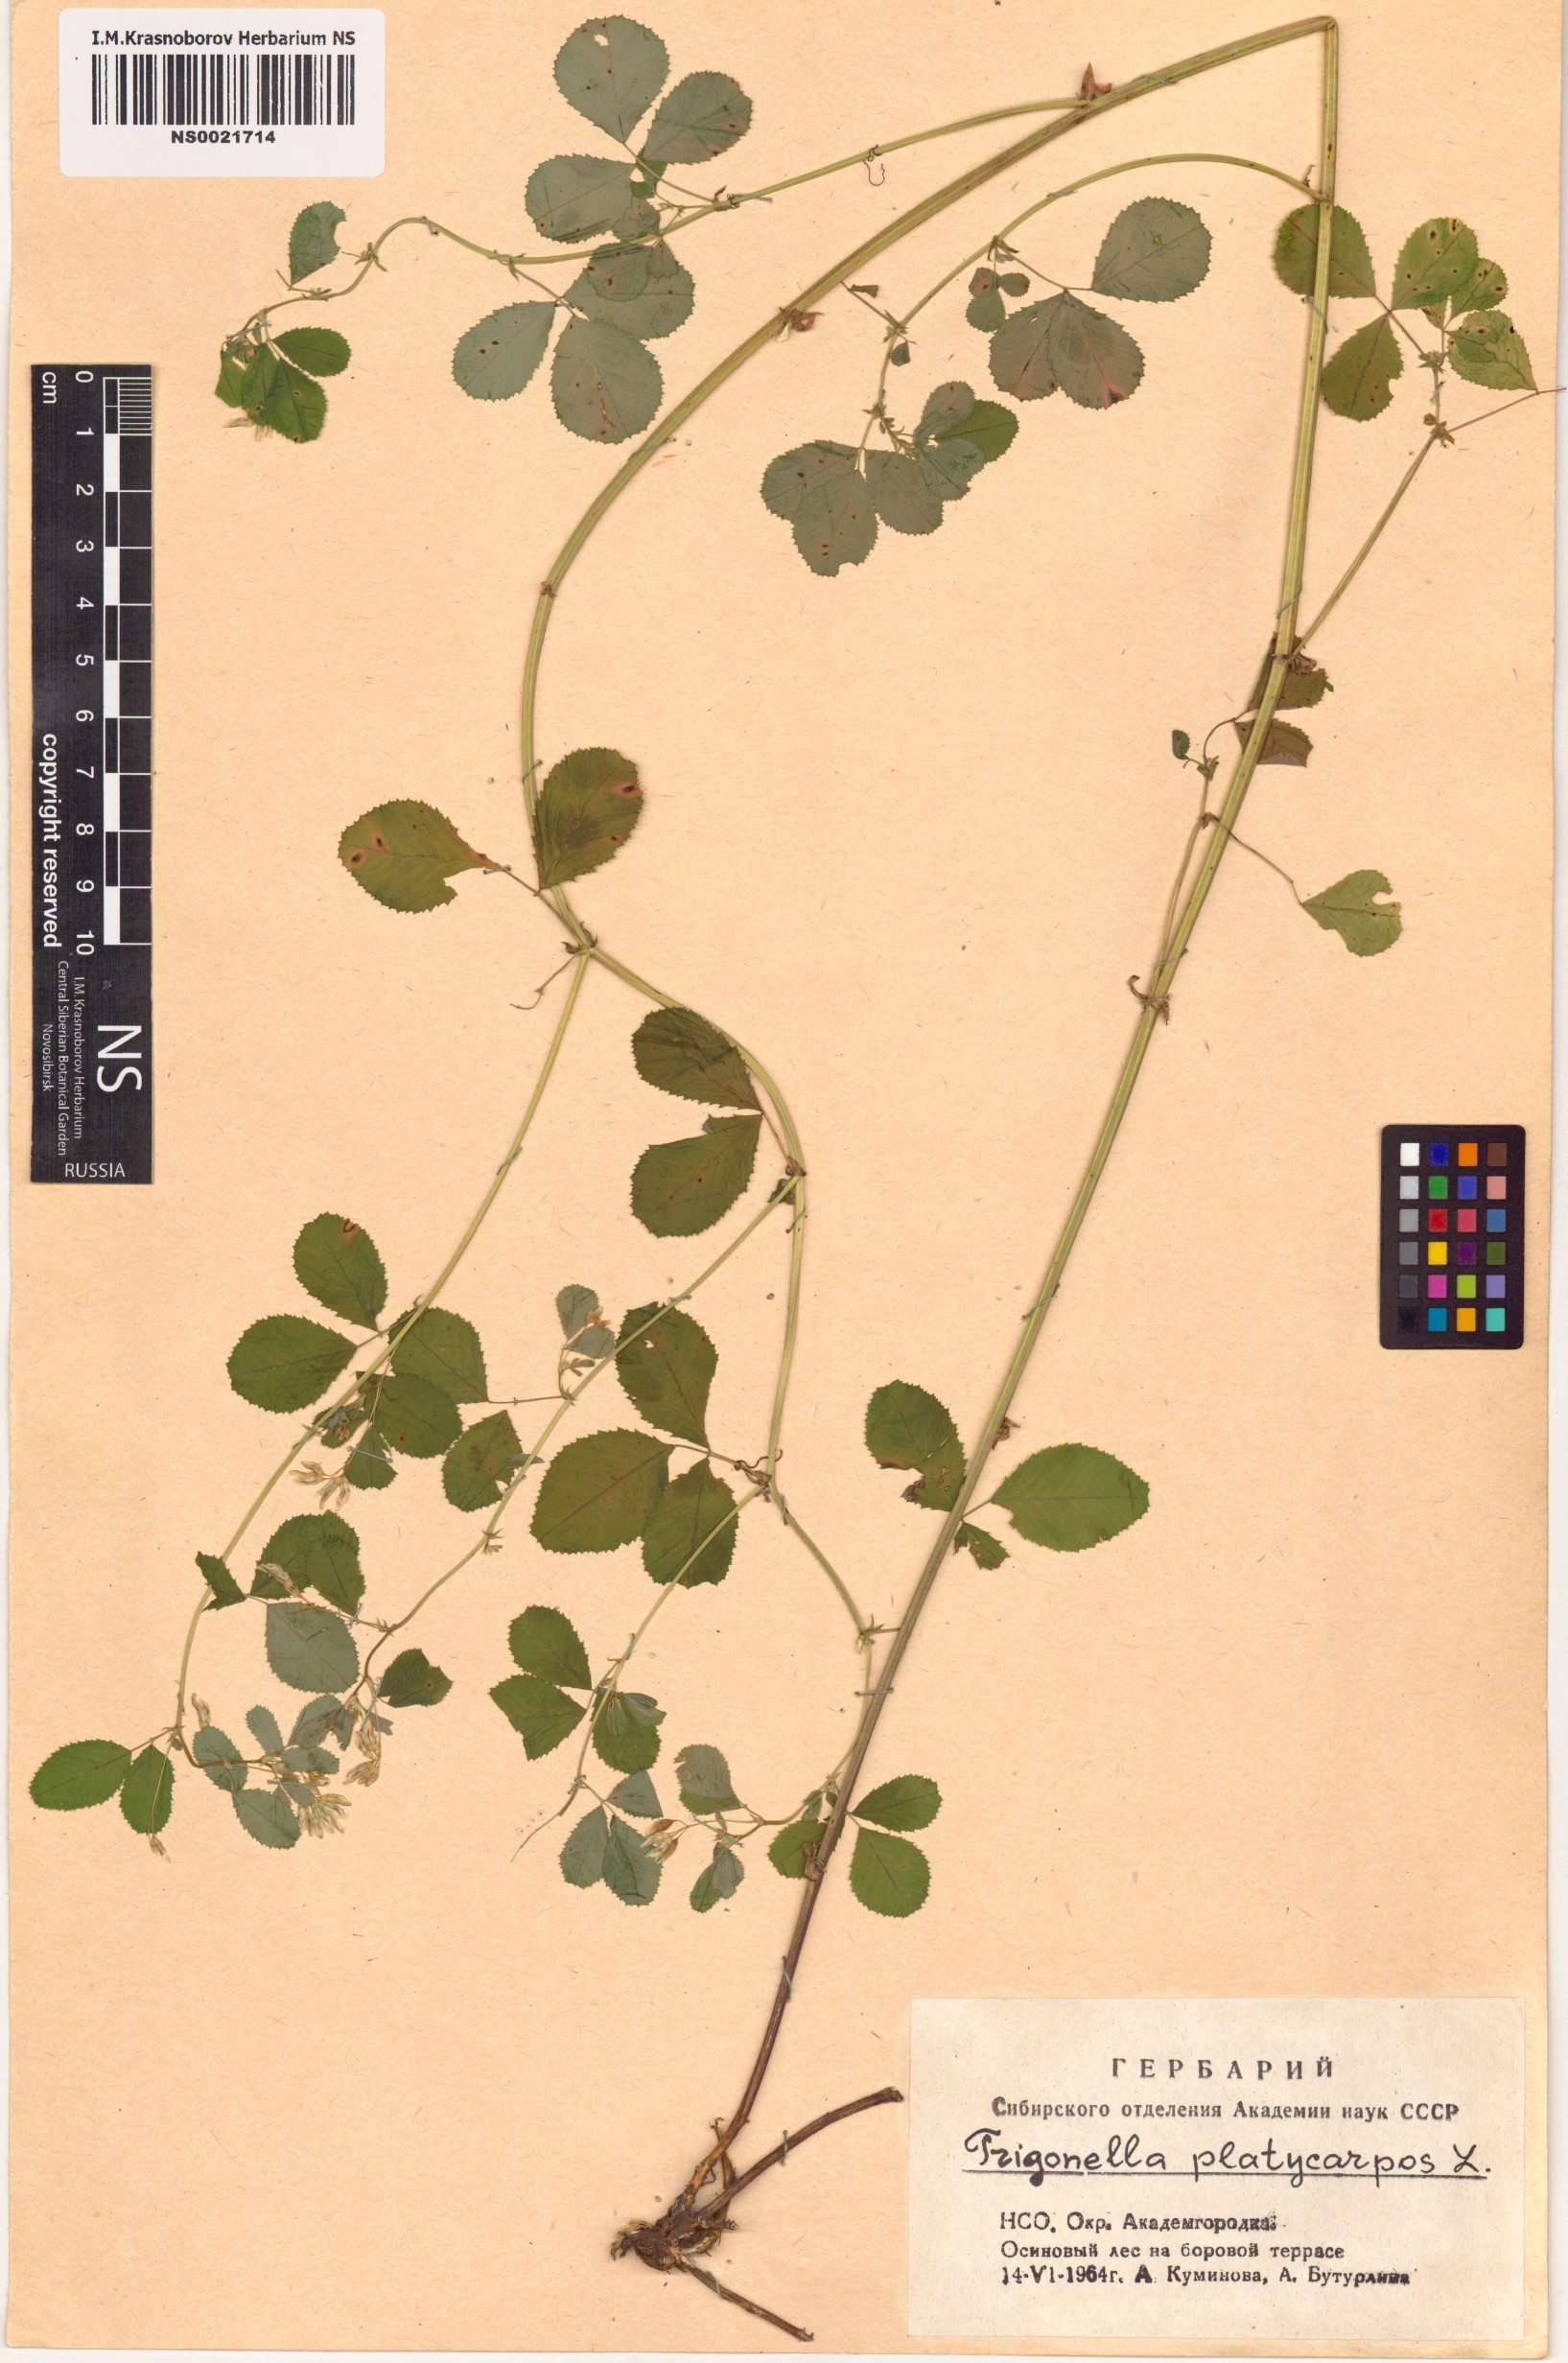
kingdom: Plantae
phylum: Tracheophyta
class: Magnoliopsida
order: Fabales
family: Fabaceae
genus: Medicago
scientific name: Medicago platycarpos
